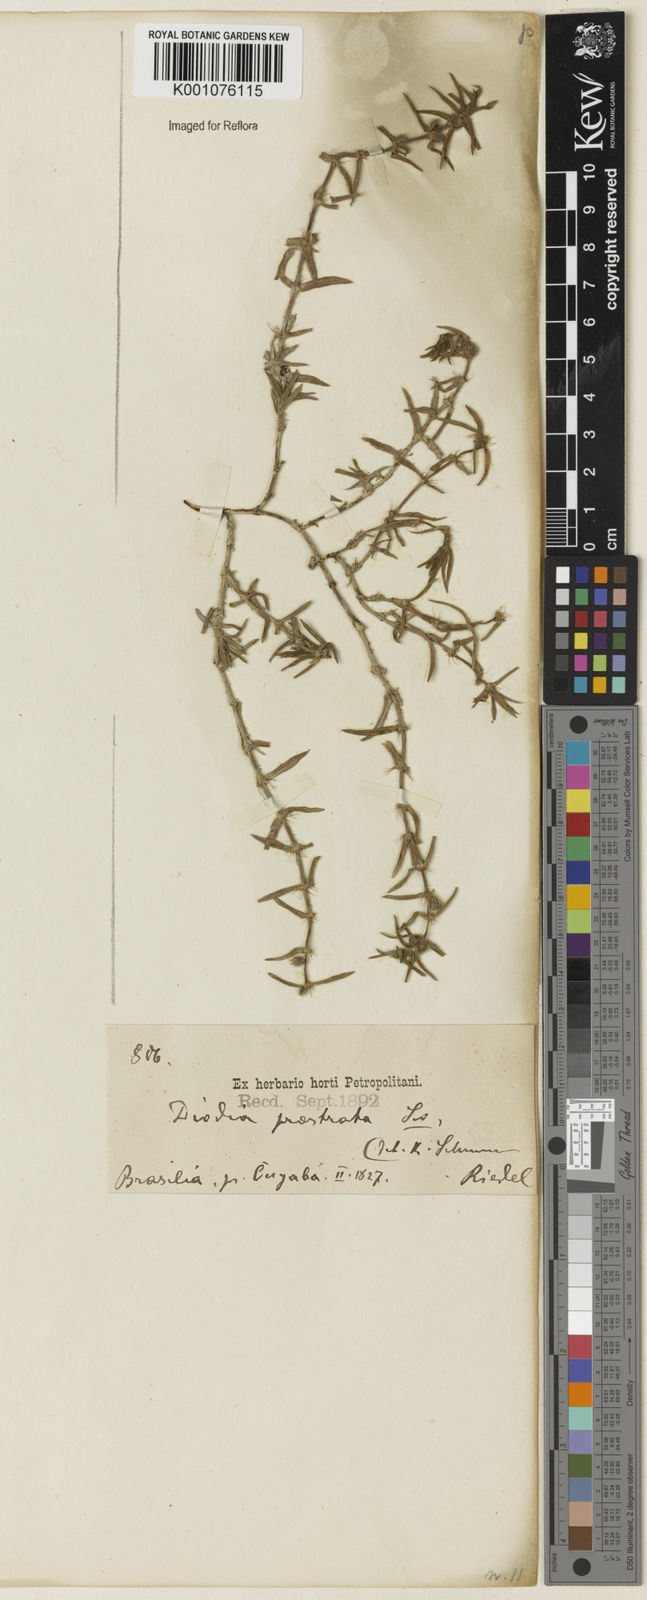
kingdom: Plantae
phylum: Tracheophyta
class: Magnoliopsida
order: Gentianales
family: Rubiaceae
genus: Hexasepalum
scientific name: Hexasepalum teres
